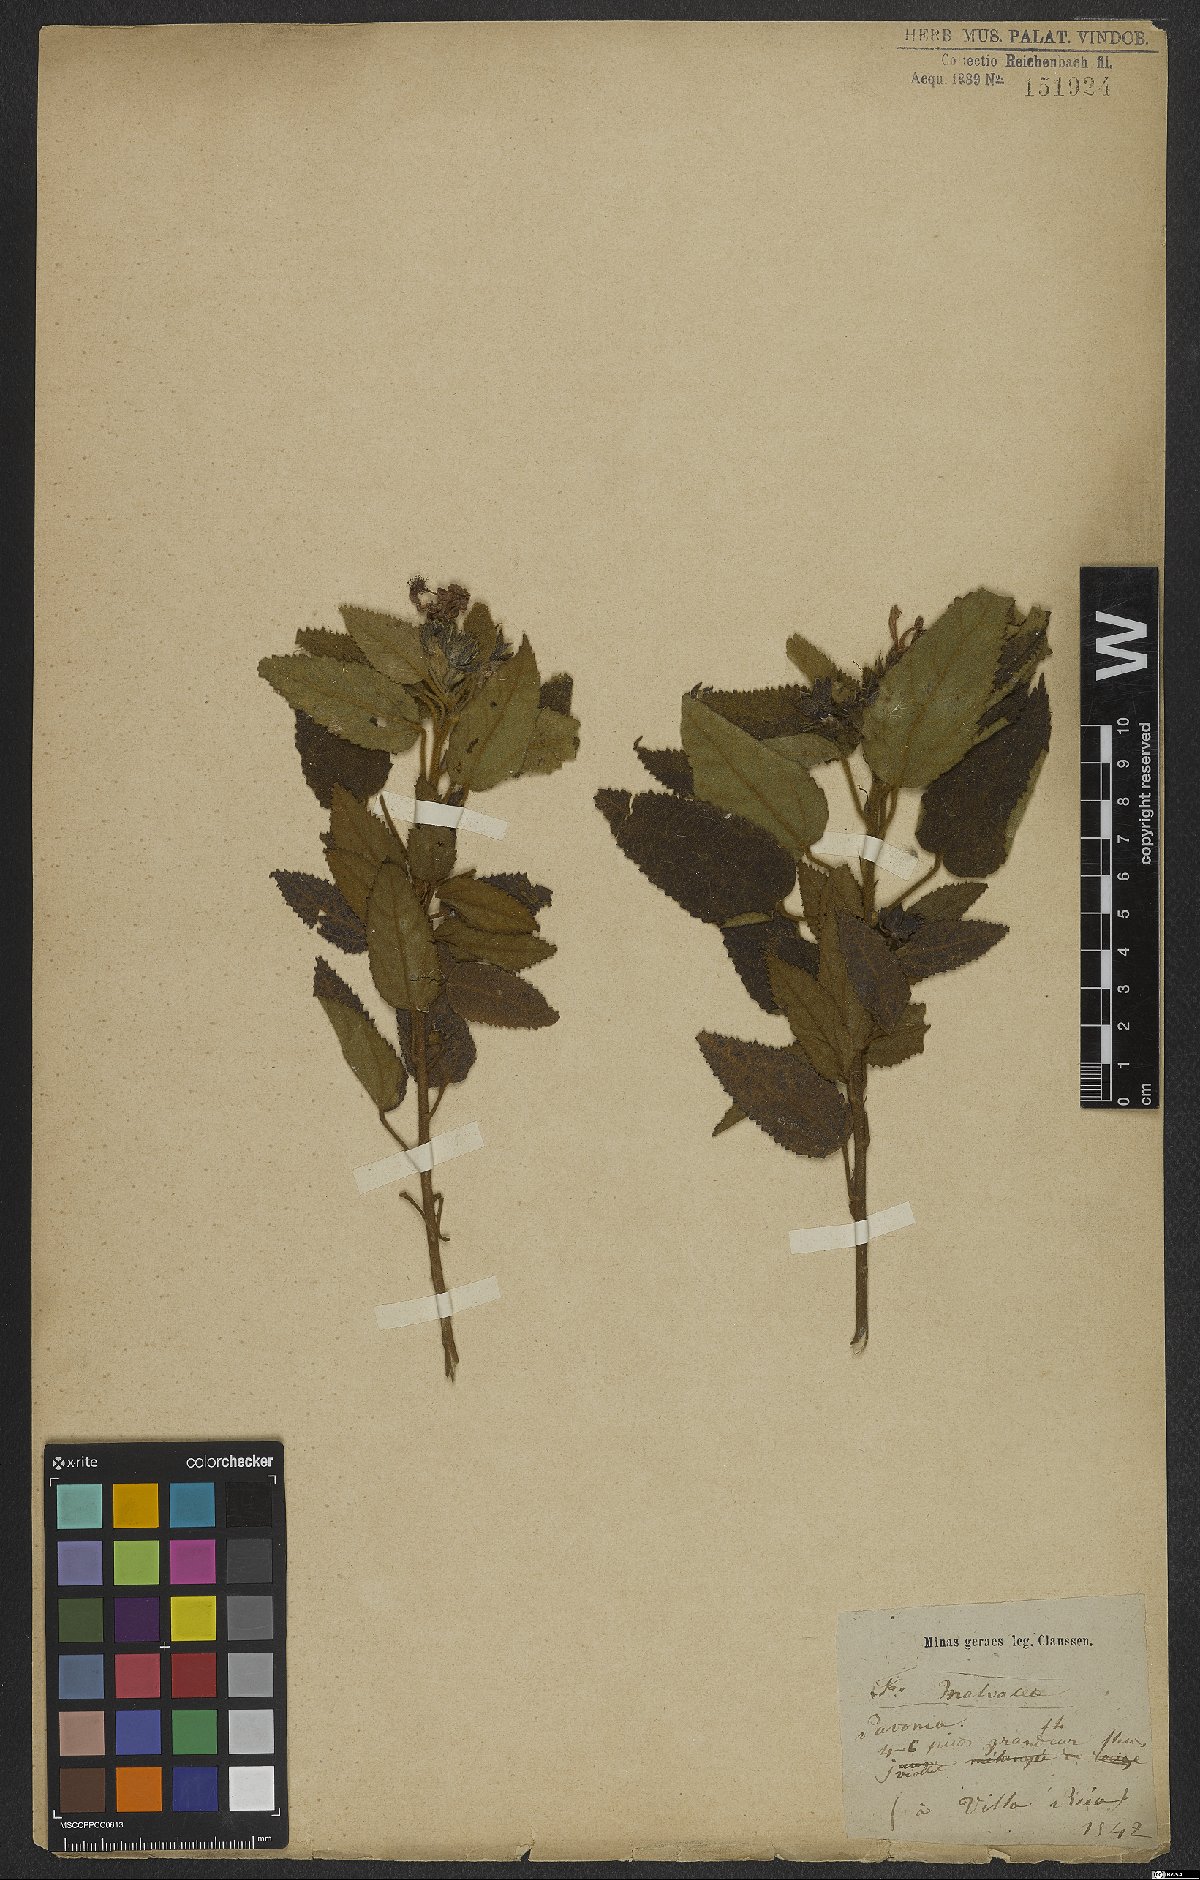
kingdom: Plantae
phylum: Tracheophyta
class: Magnoliopsida
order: Malvales
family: Malvaceae
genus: Pavonia
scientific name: Pavonia
